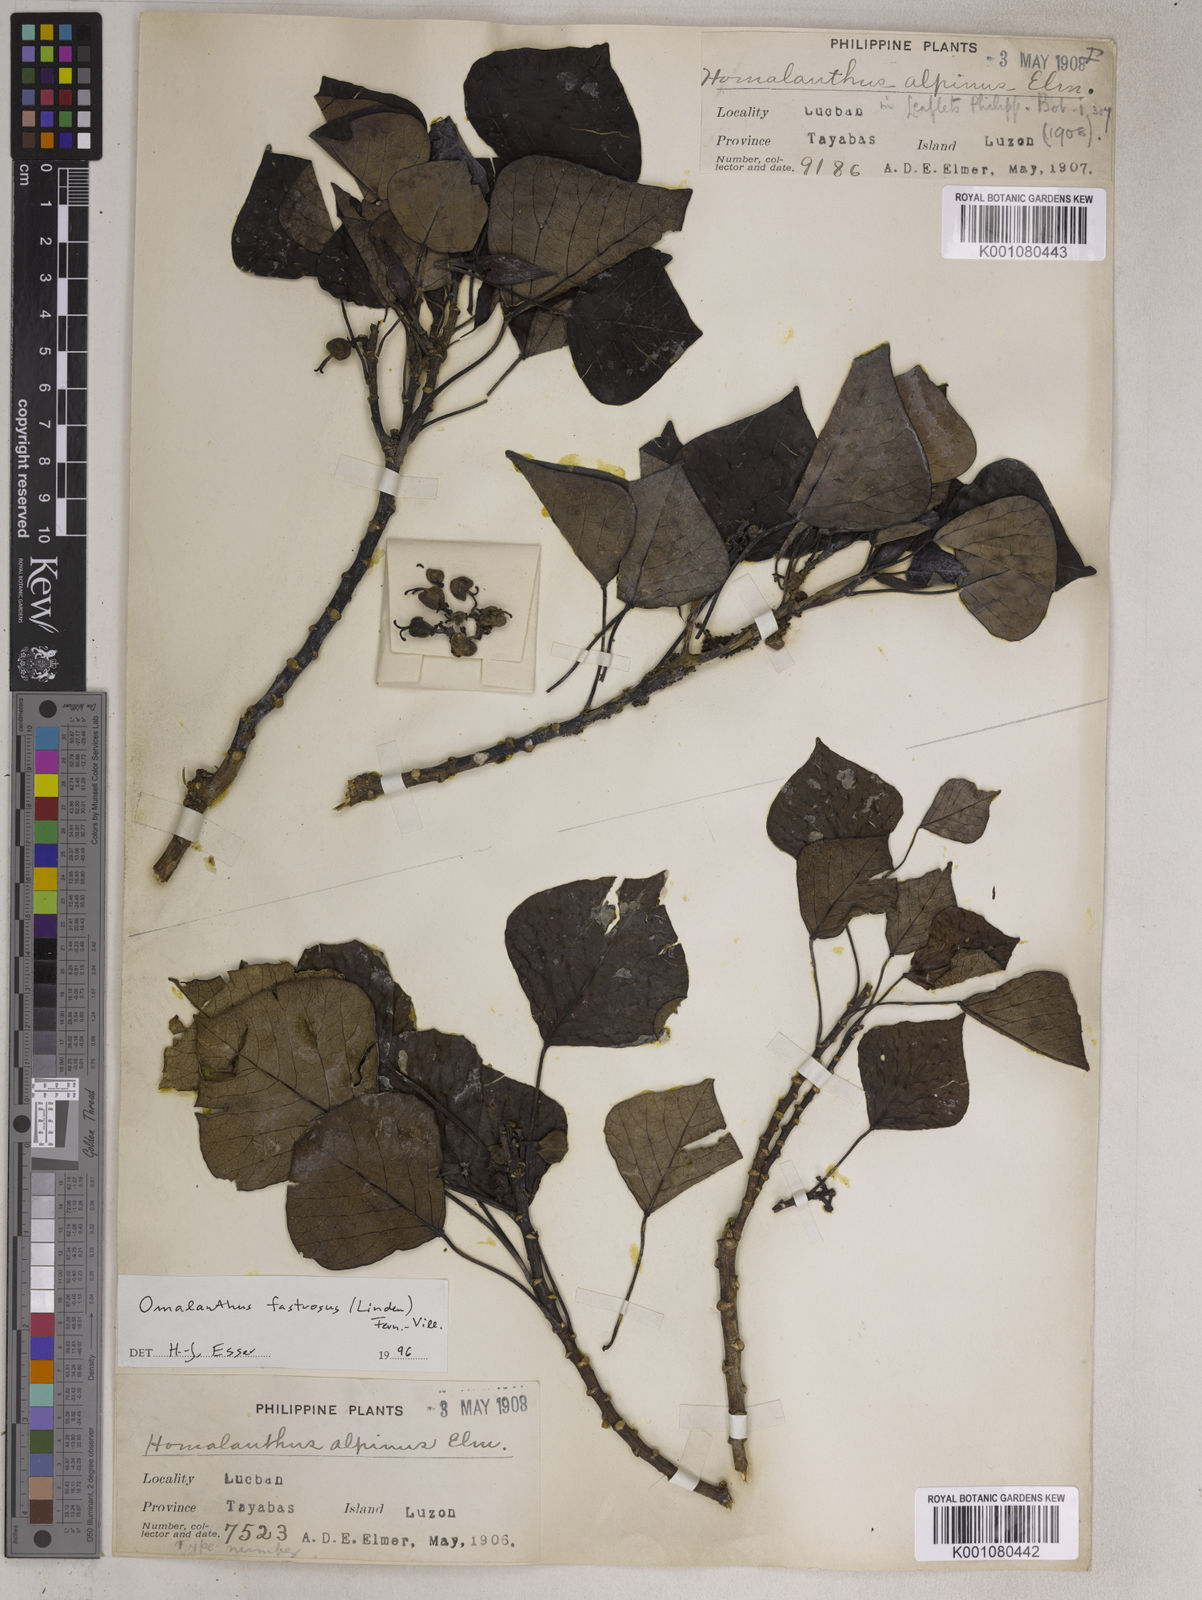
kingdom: Plantae
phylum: Tracheophyta
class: Magnoliopsida
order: Malpighiales
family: Euphorbiaceae
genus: Homalanthus
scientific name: Homalanthus fastuosus
